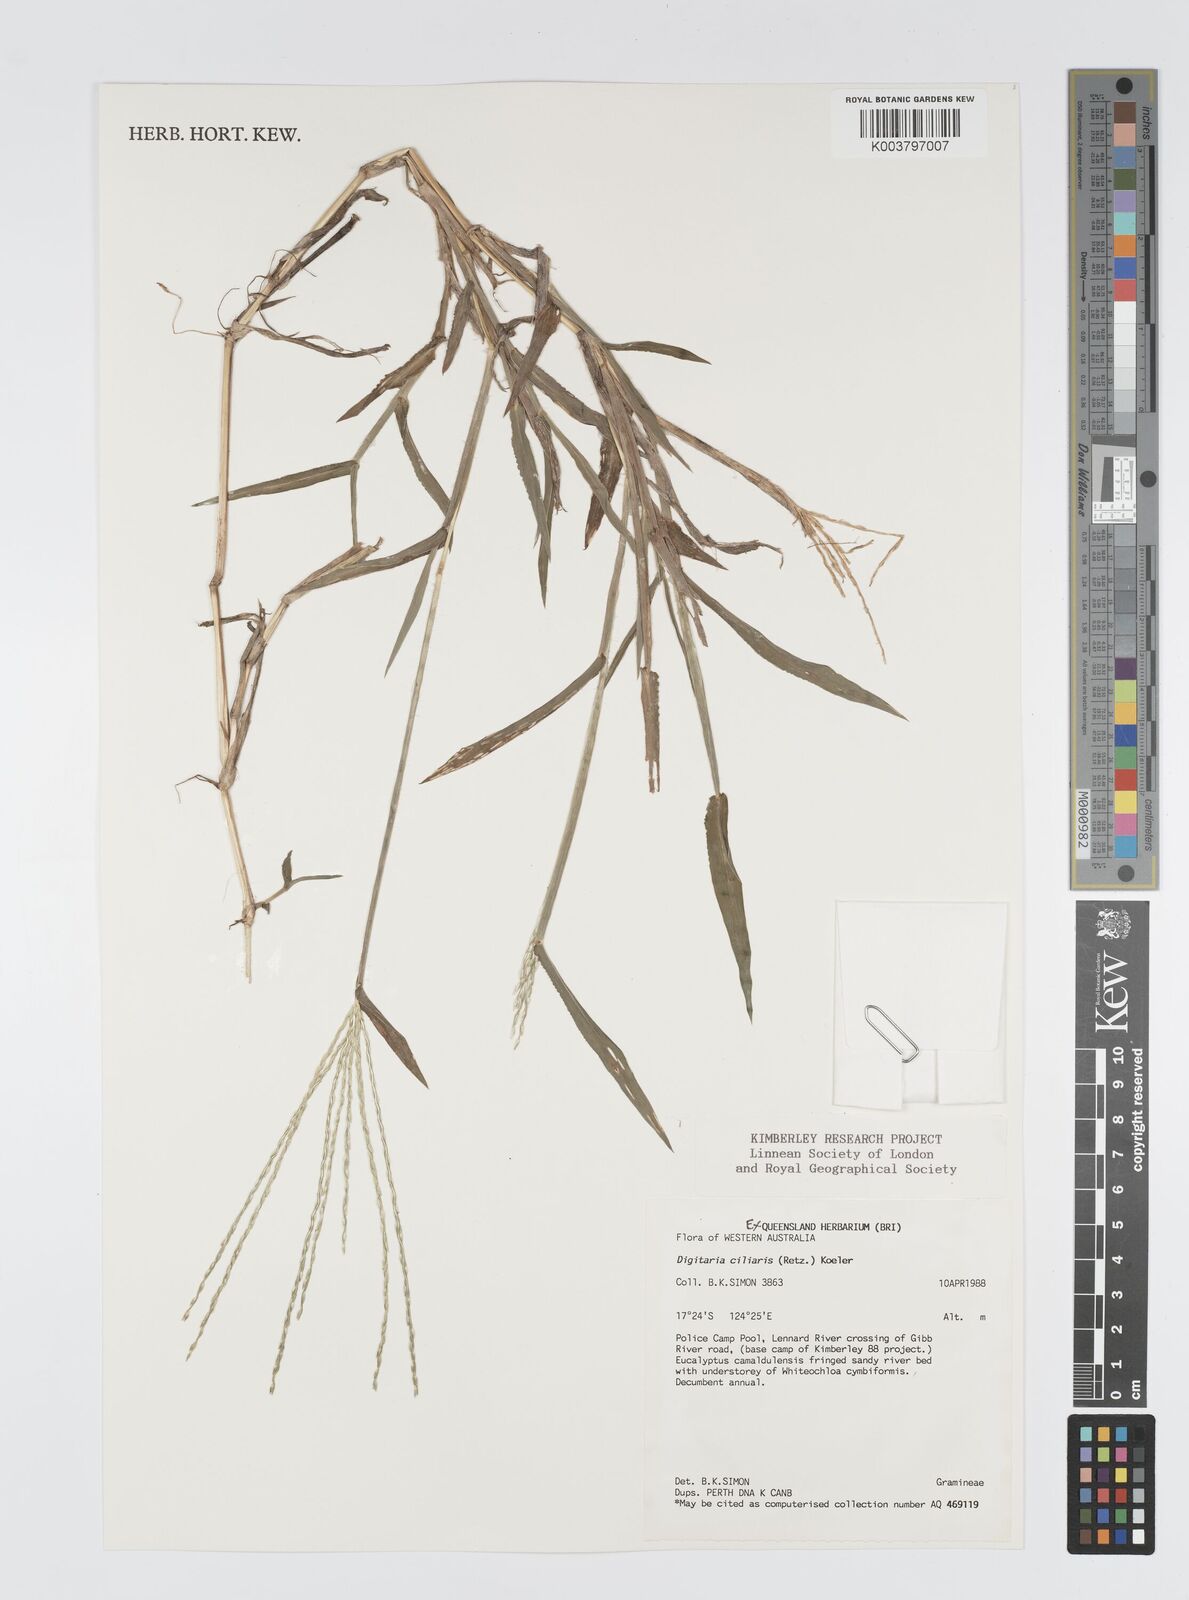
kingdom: Plantae
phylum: Tracheophyta
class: Liliopsida
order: Poales
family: Poaceae
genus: Digitaria
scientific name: Digitaria ciliaris
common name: Tropical finger-grass
